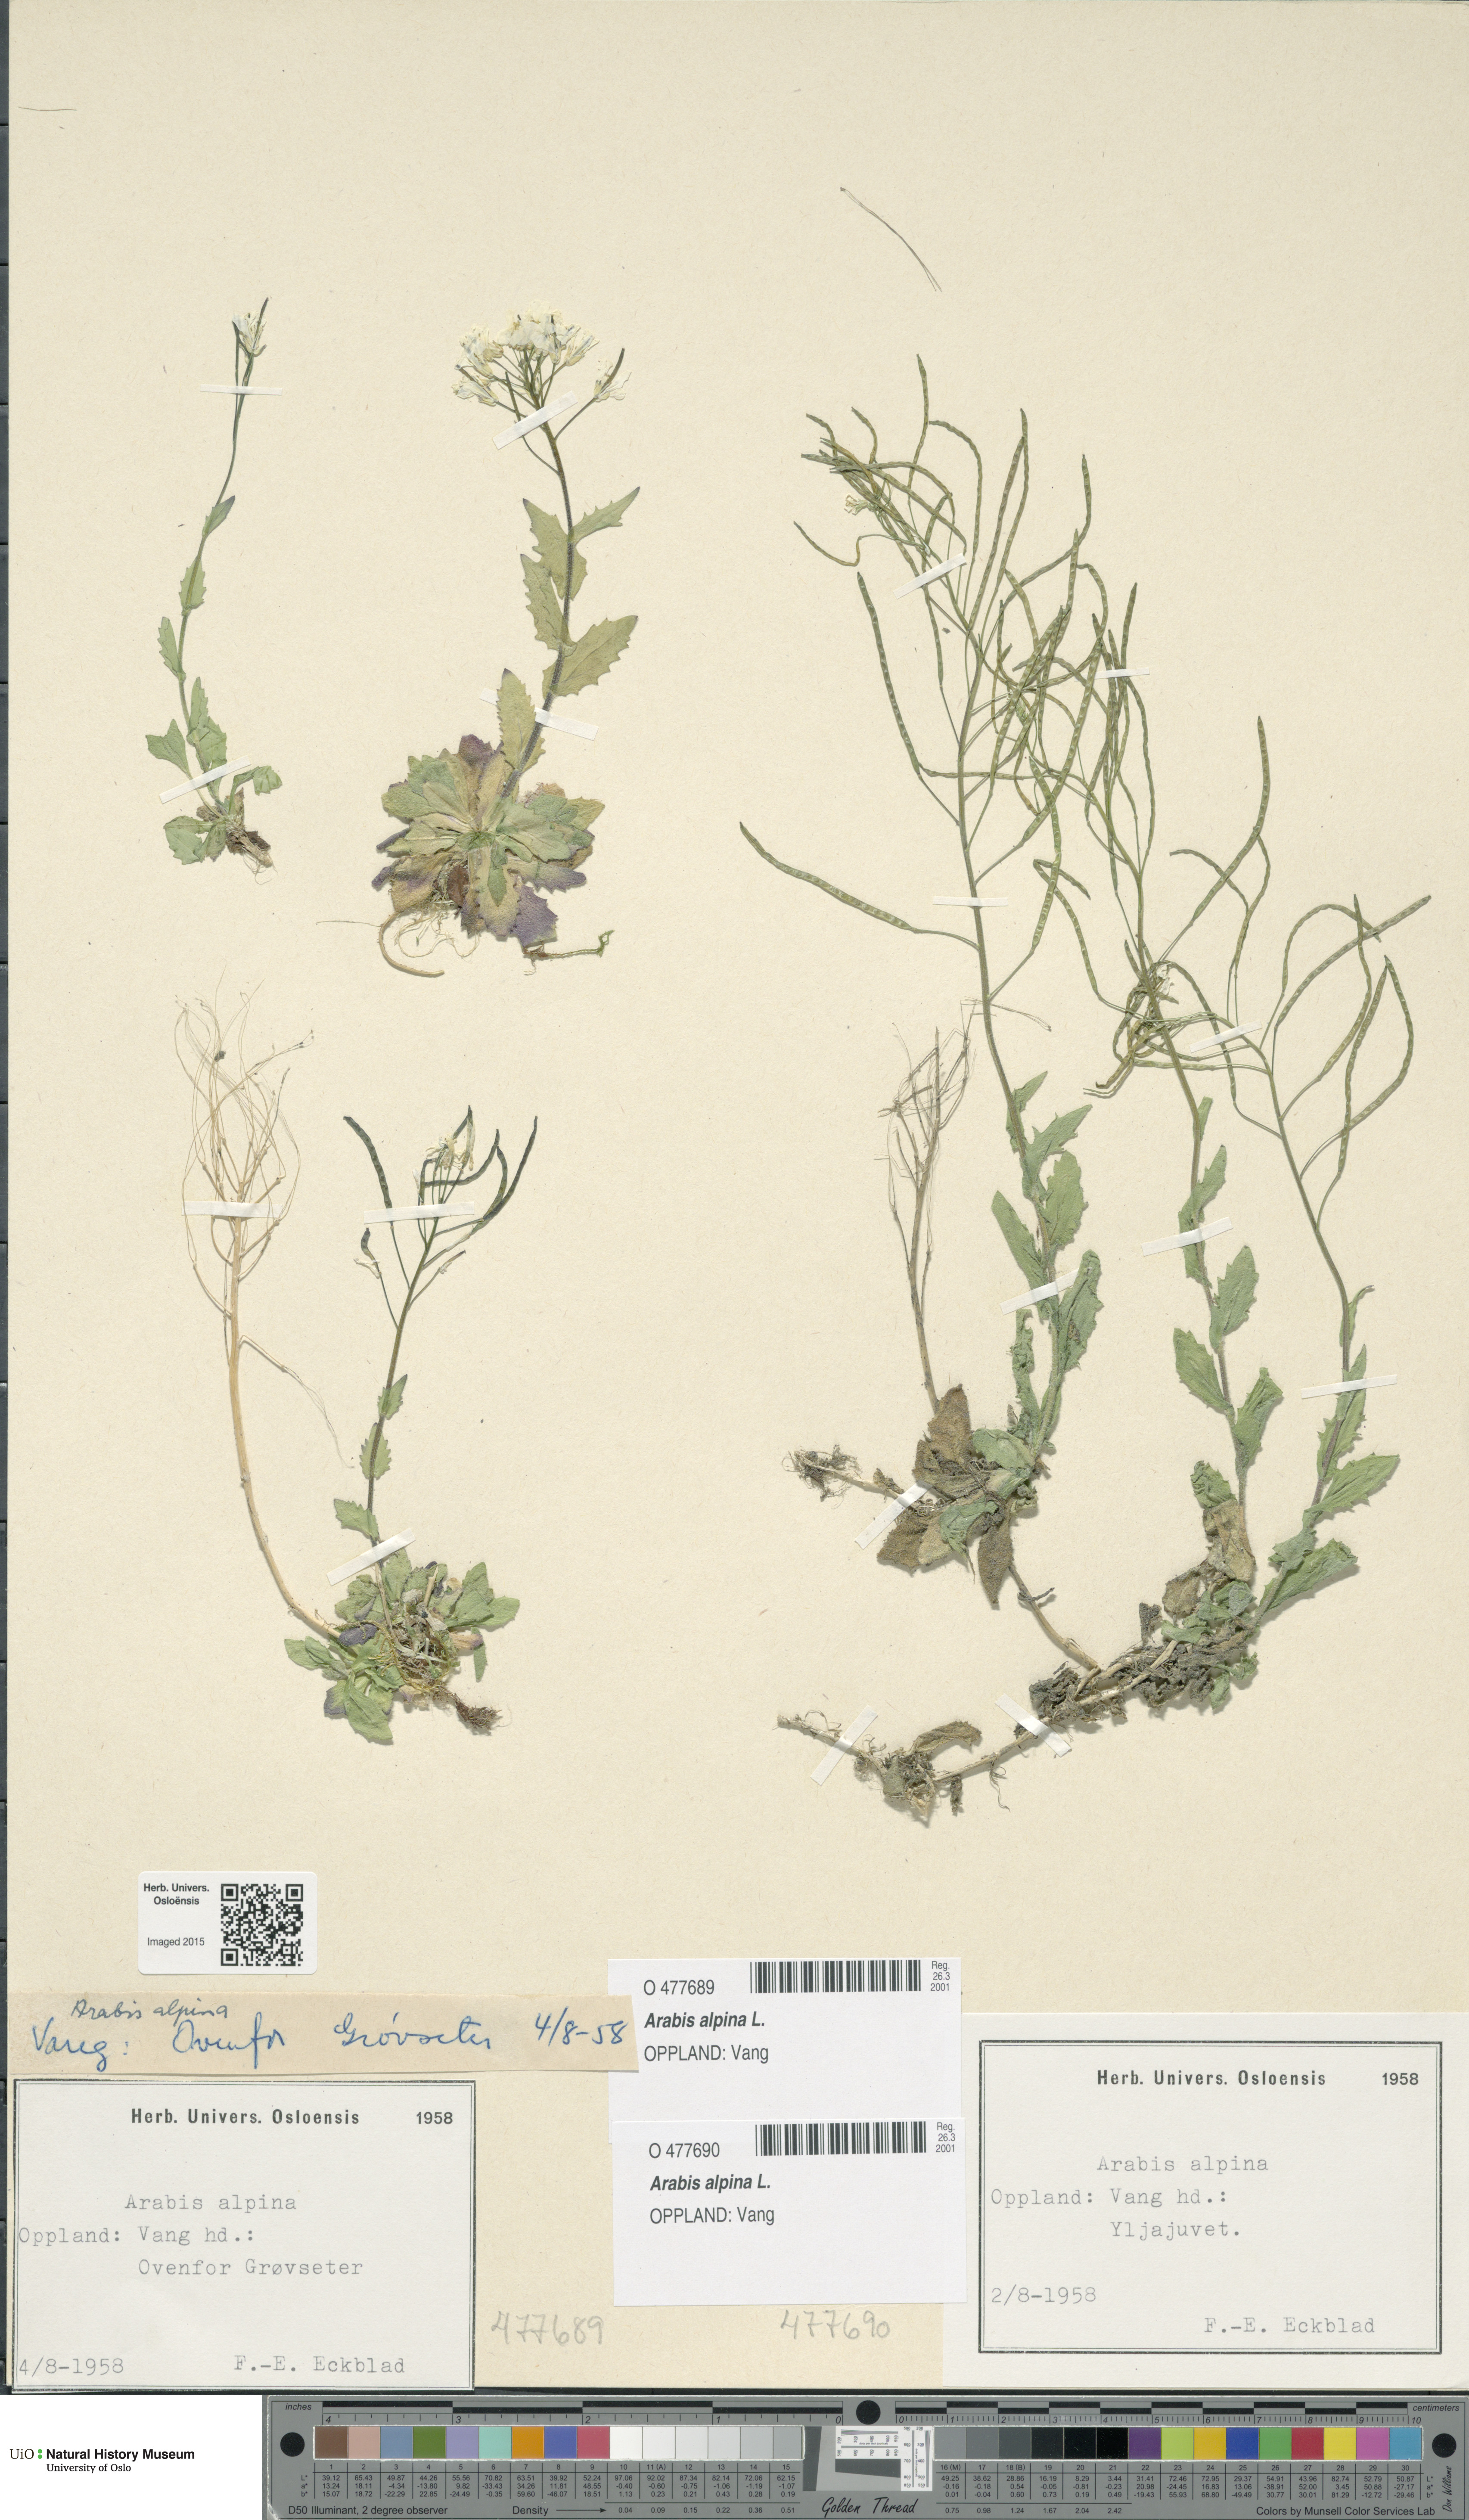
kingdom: Plantae
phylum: Tracheophyta
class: Magnoliopsida
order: Brassicales
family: Brassicaceae
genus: Arabis
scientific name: Arabis alpina
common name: Alpine rock-cress
